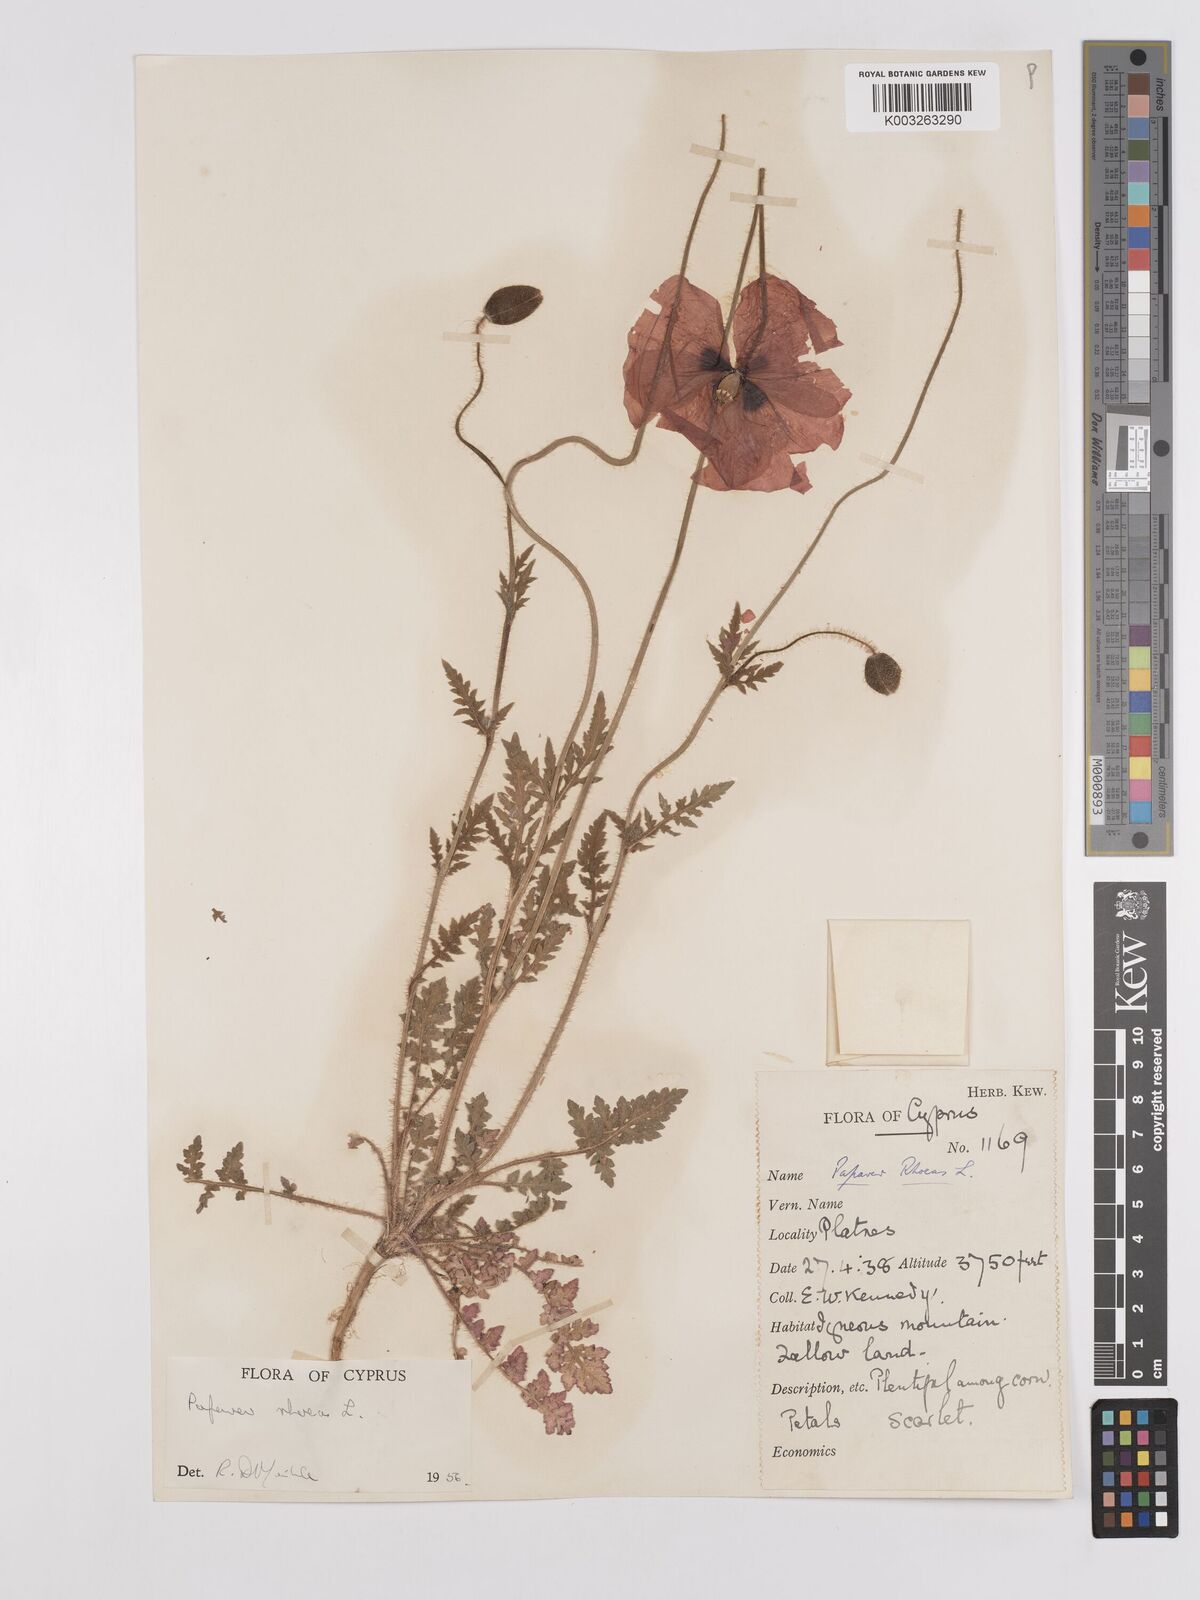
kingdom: Plantae
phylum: Tracheophyta
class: Magnoliopsida
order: Ranunculales
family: Papaveraceae
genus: Papaver
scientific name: Papaver rhoeas
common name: Corn poppy
